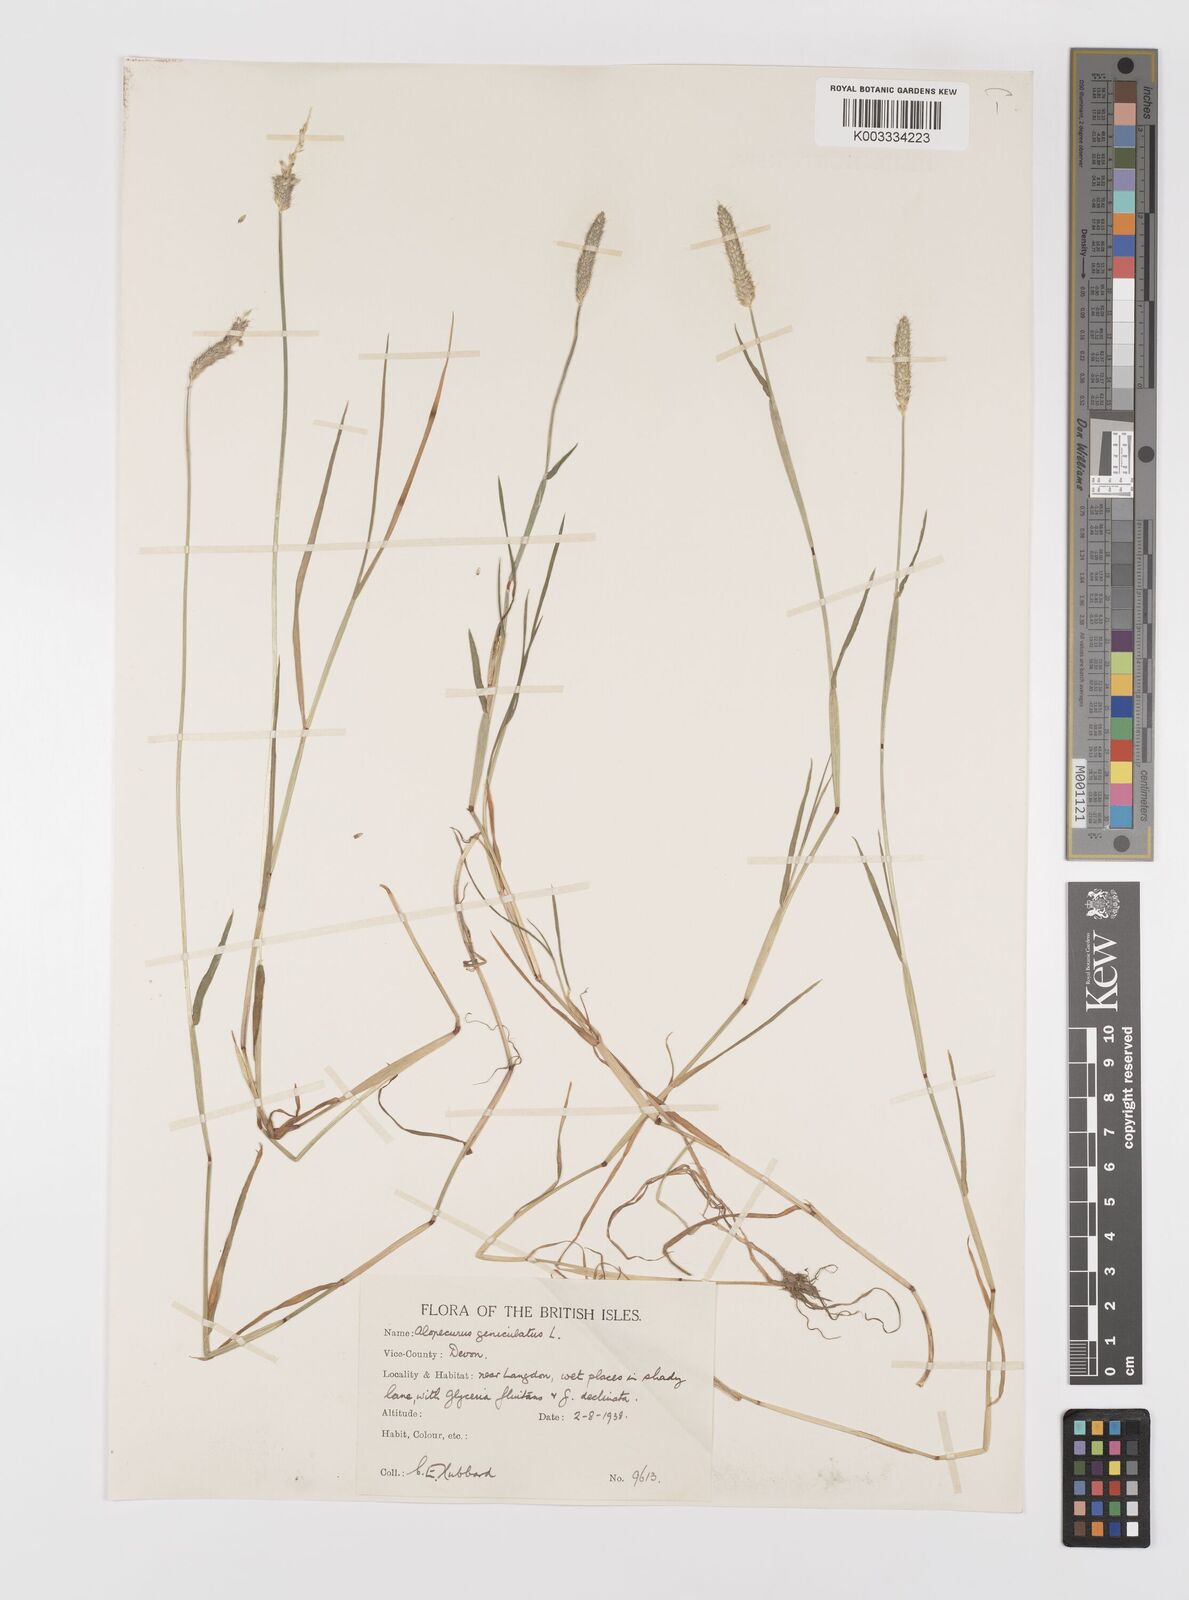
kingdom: Plantae
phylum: Tracheophyta
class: Liliopsida
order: Poales
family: Poaceae
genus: Alopecurus
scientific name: Alopecurus geniculatus
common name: Water foxtail
